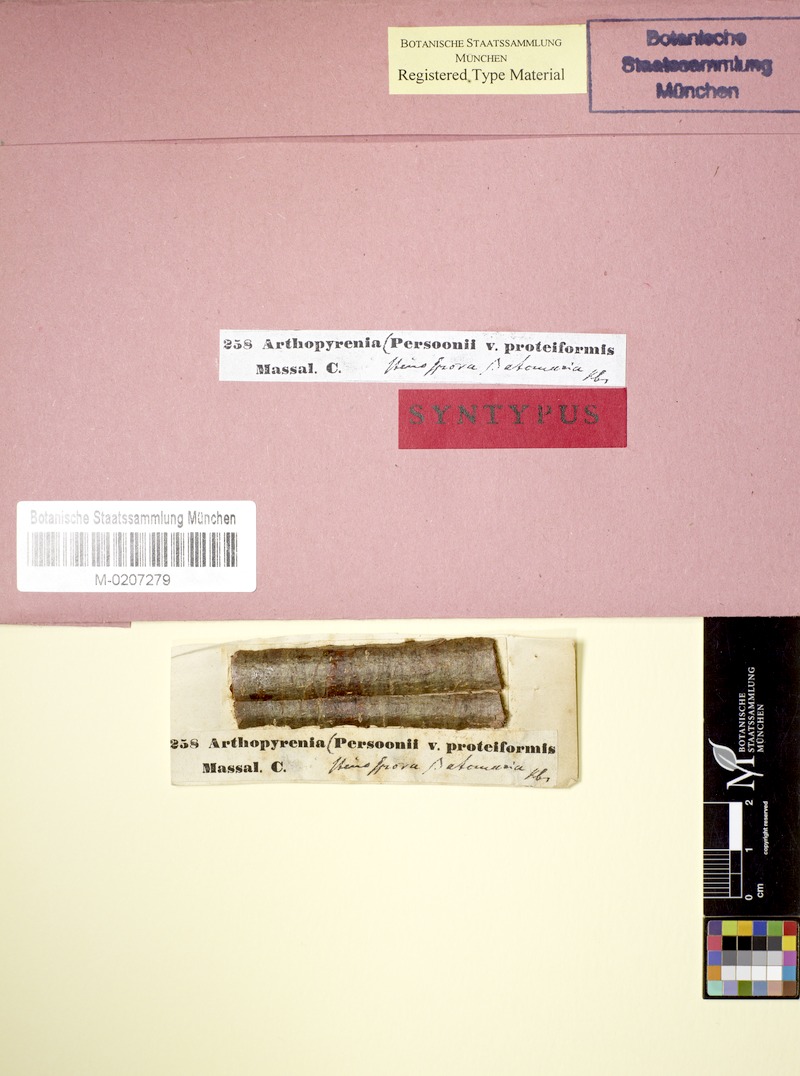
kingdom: Fungi
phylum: Ascomycota
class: Dothideomycetes
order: Pleosporales
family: Naetrocymbaceae
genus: Naetrocymbe
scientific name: Naetrocymbe punctiformis
